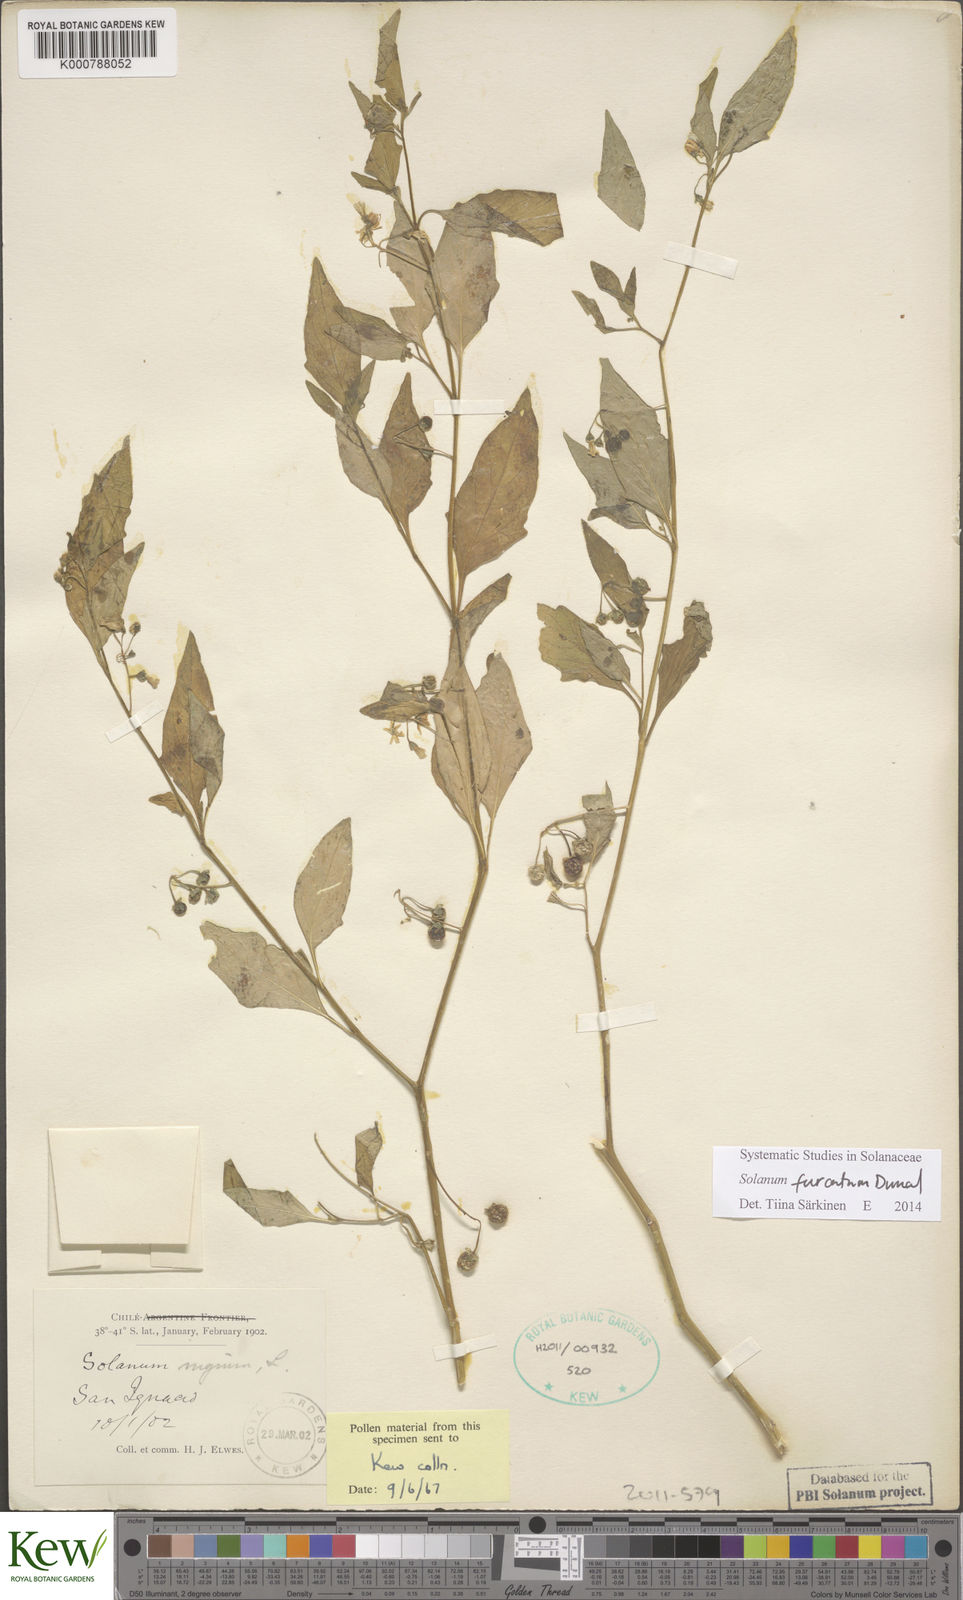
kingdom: Plantae
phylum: Tracheophyta
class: Magnoliopsida
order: Solanales
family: Solanaceae
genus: Solanum
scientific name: Solanum furcatum
